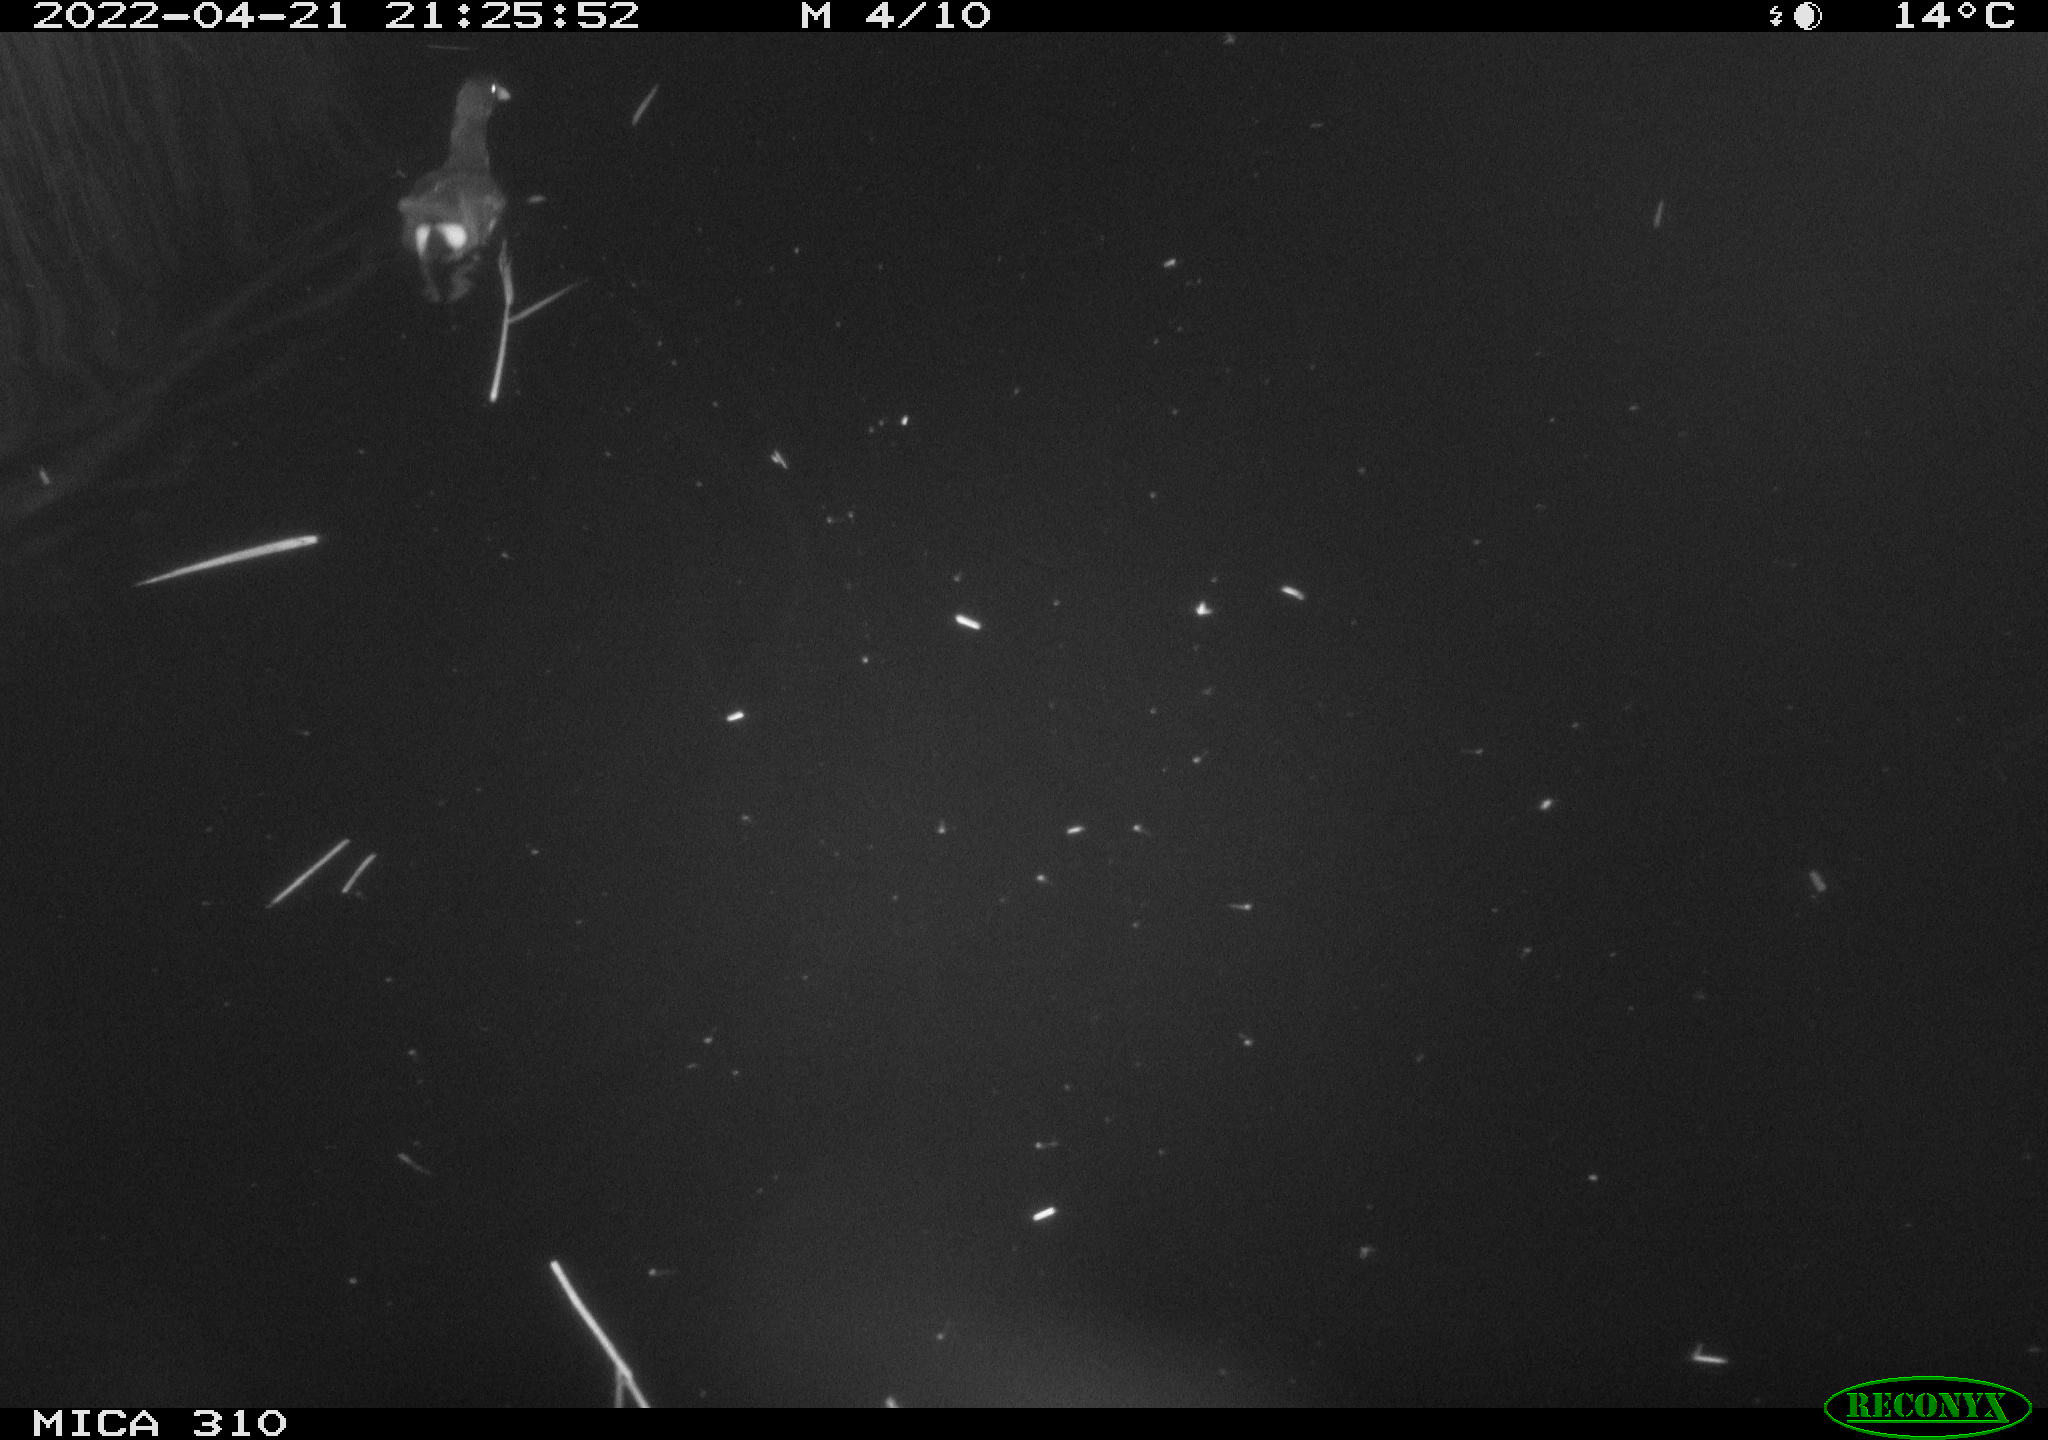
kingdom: Animalia
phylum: Chordata
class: Aves
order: Gruiformes
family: Rallidae
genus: Gallinula
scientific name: Gallinula chloropus
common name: Common moorhen
